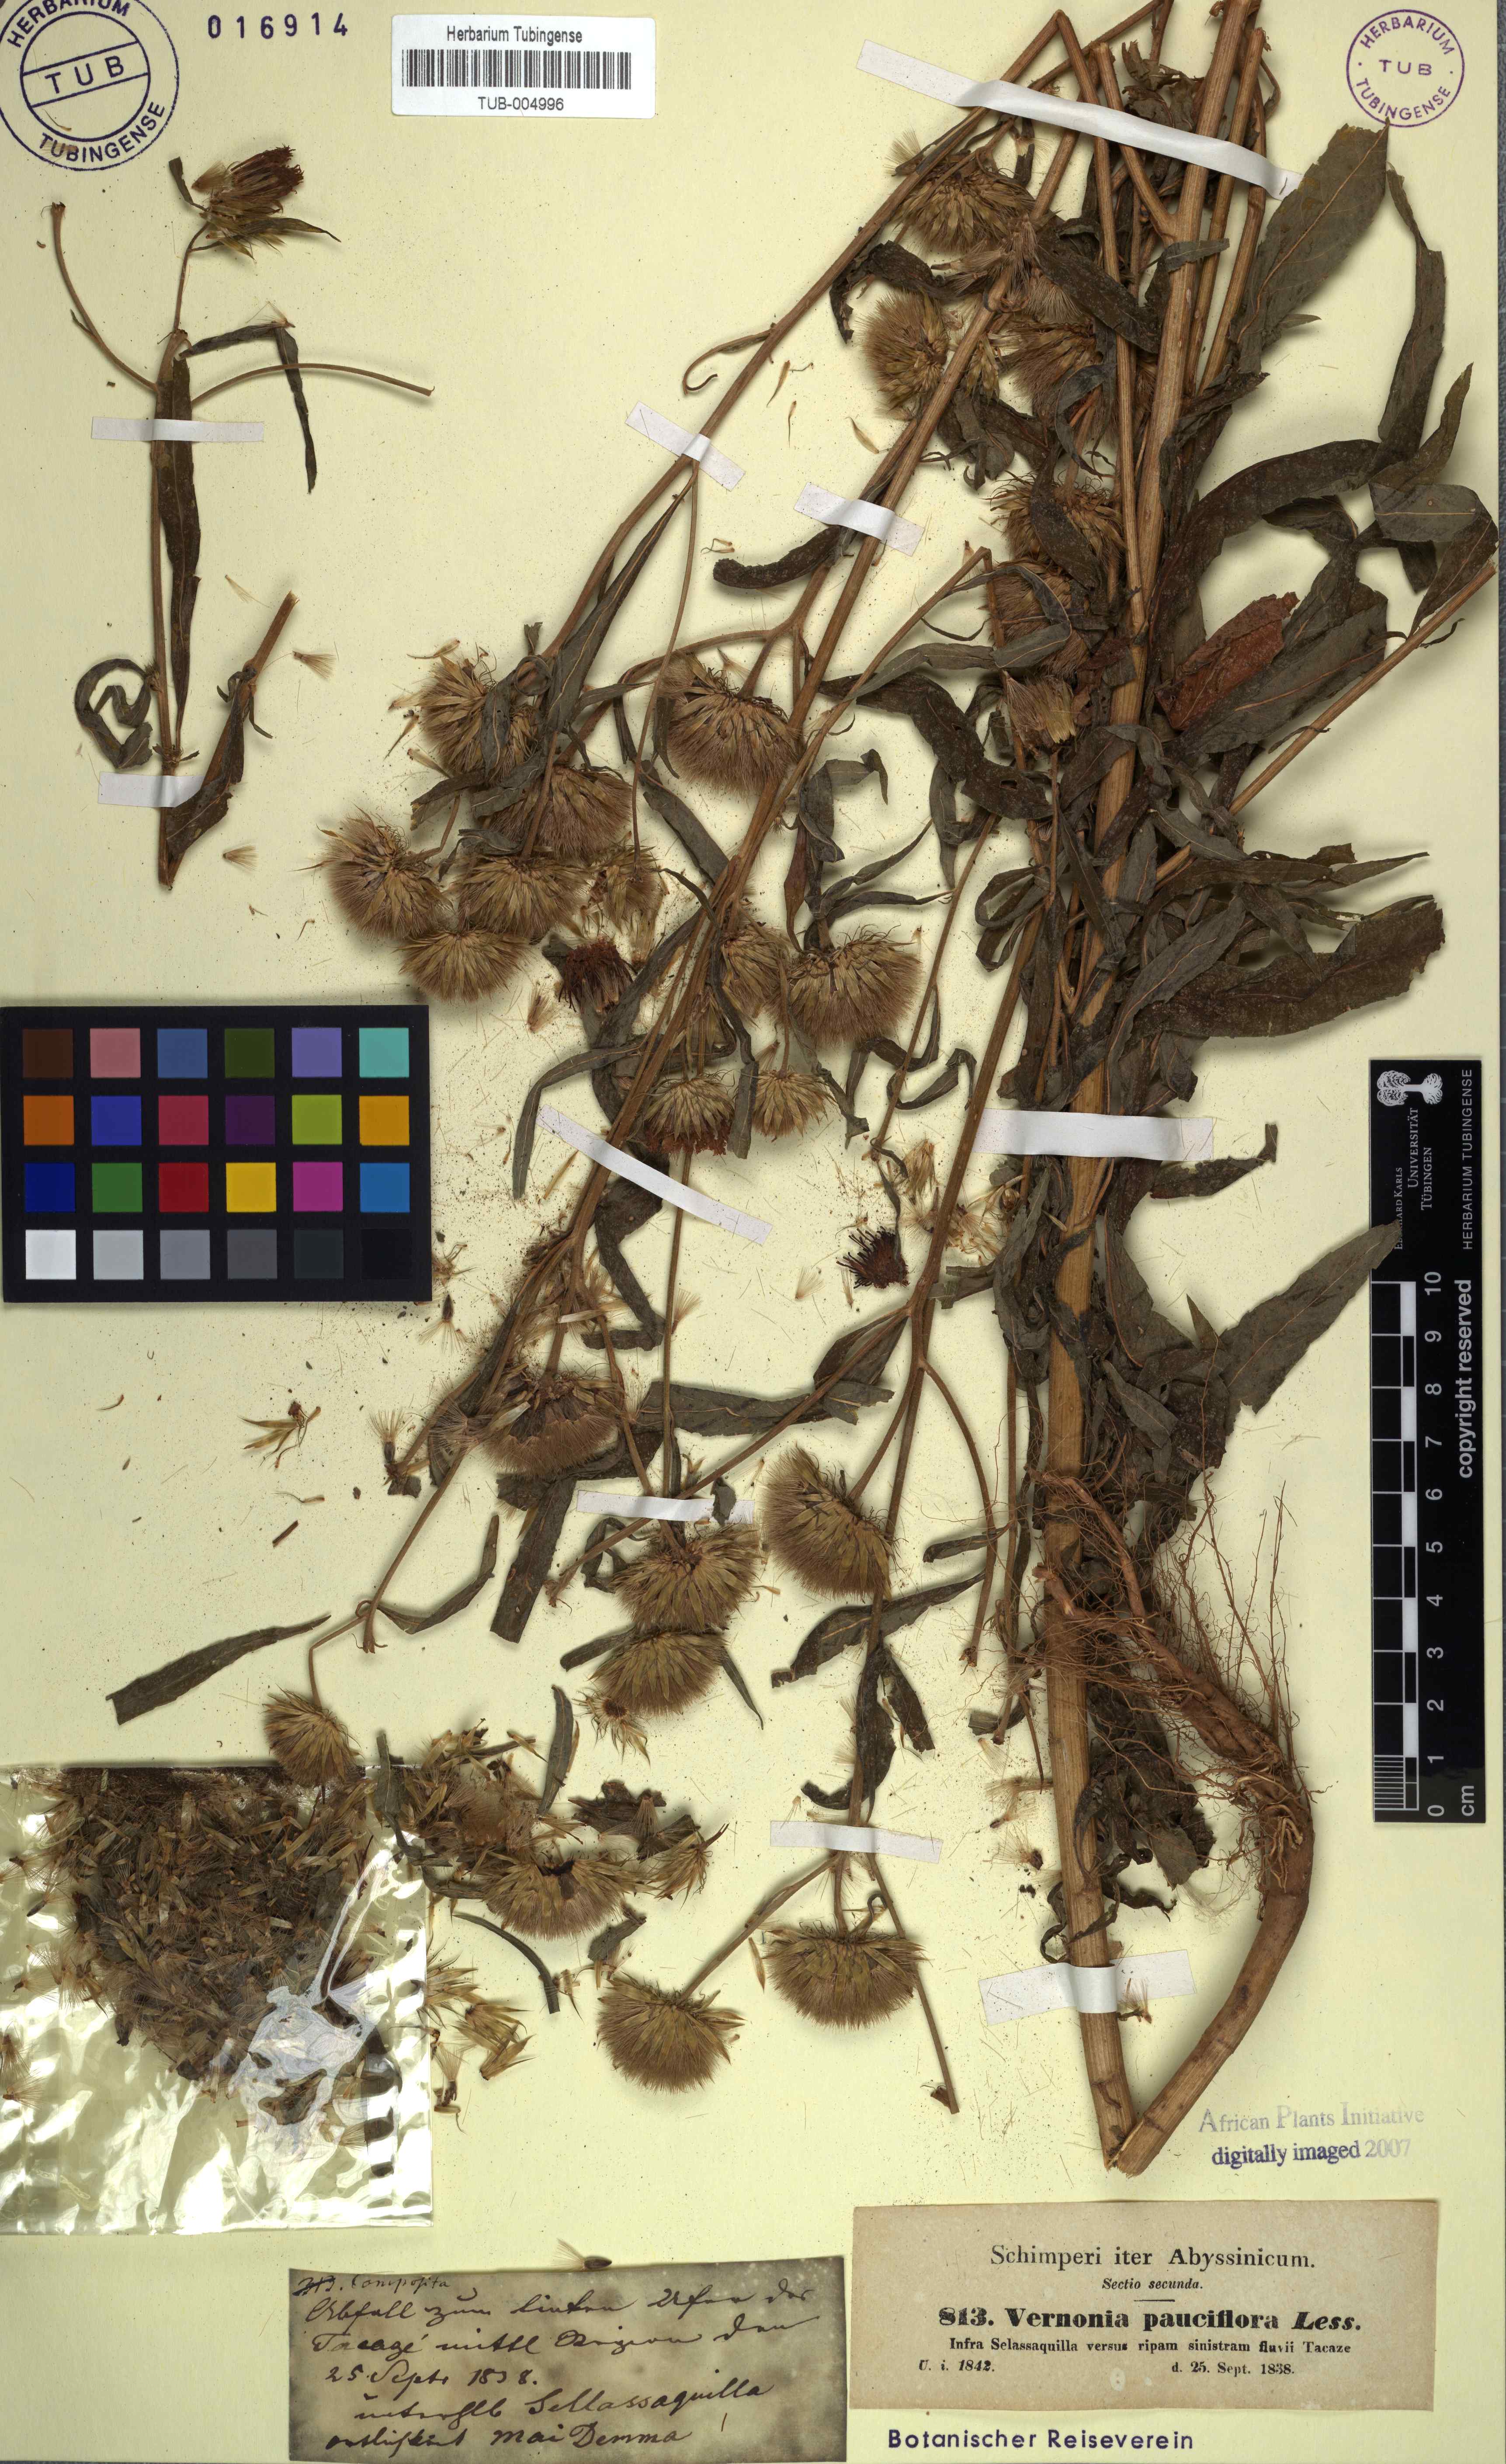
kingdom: Plantae
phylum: Tracheophyta
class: Magnoliopsida
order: Asterales
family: Asteraceae
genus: Vernonia
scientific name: Vernonia galamensis
